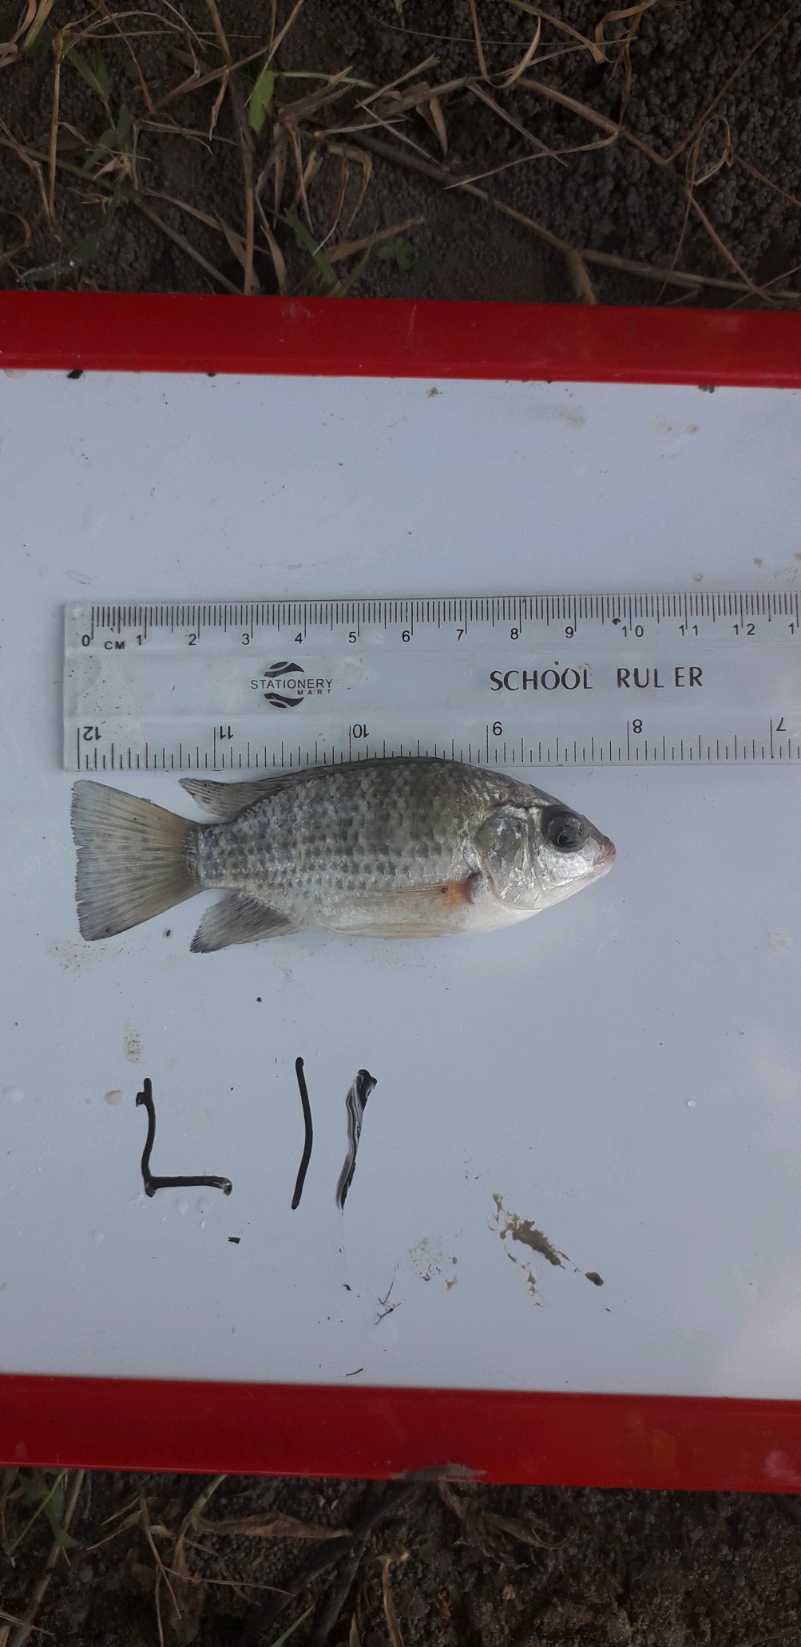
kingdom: Animalia
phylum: Chordata
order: Perciformes
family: Cichlidae
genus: Oreochromis
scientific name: Oreochromis leucostictus
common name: Blue spotted tilapia
